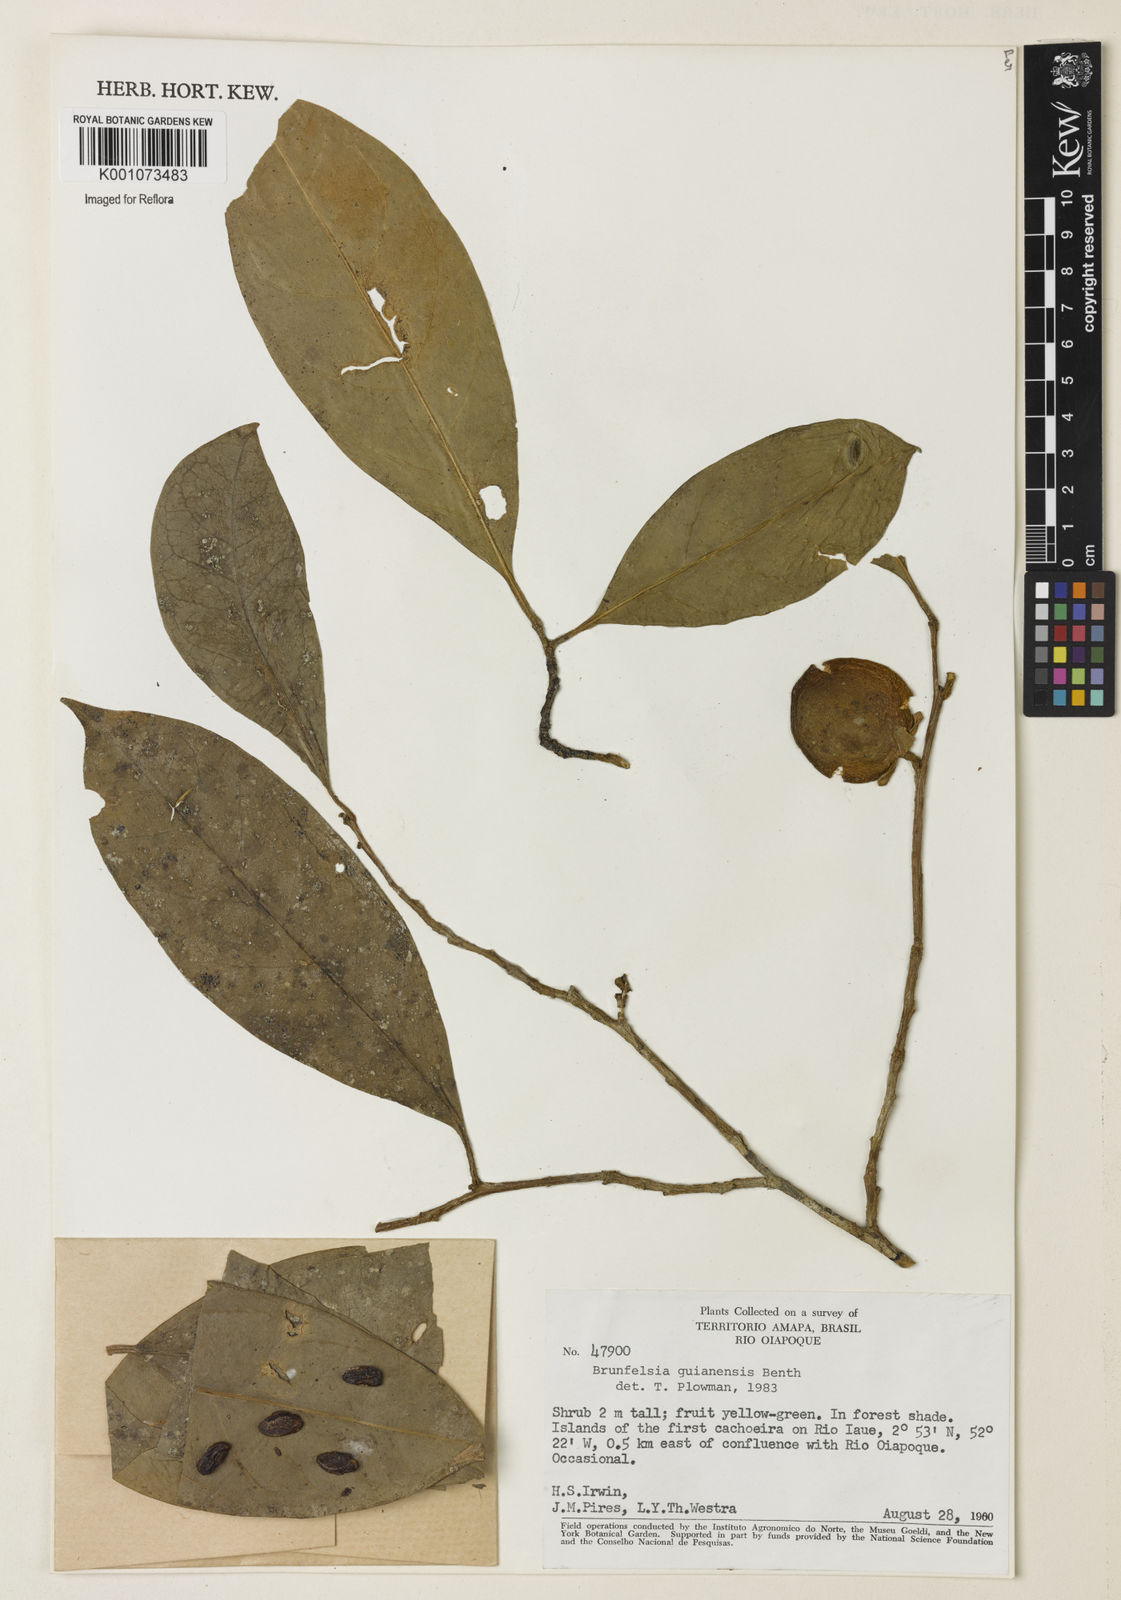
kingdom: Plantae
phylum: Tracheophyta
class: Magnoliopsida
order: Solanales
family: Solanaceae
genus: Brunfelsia
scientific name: Brunfelsia guianensis
